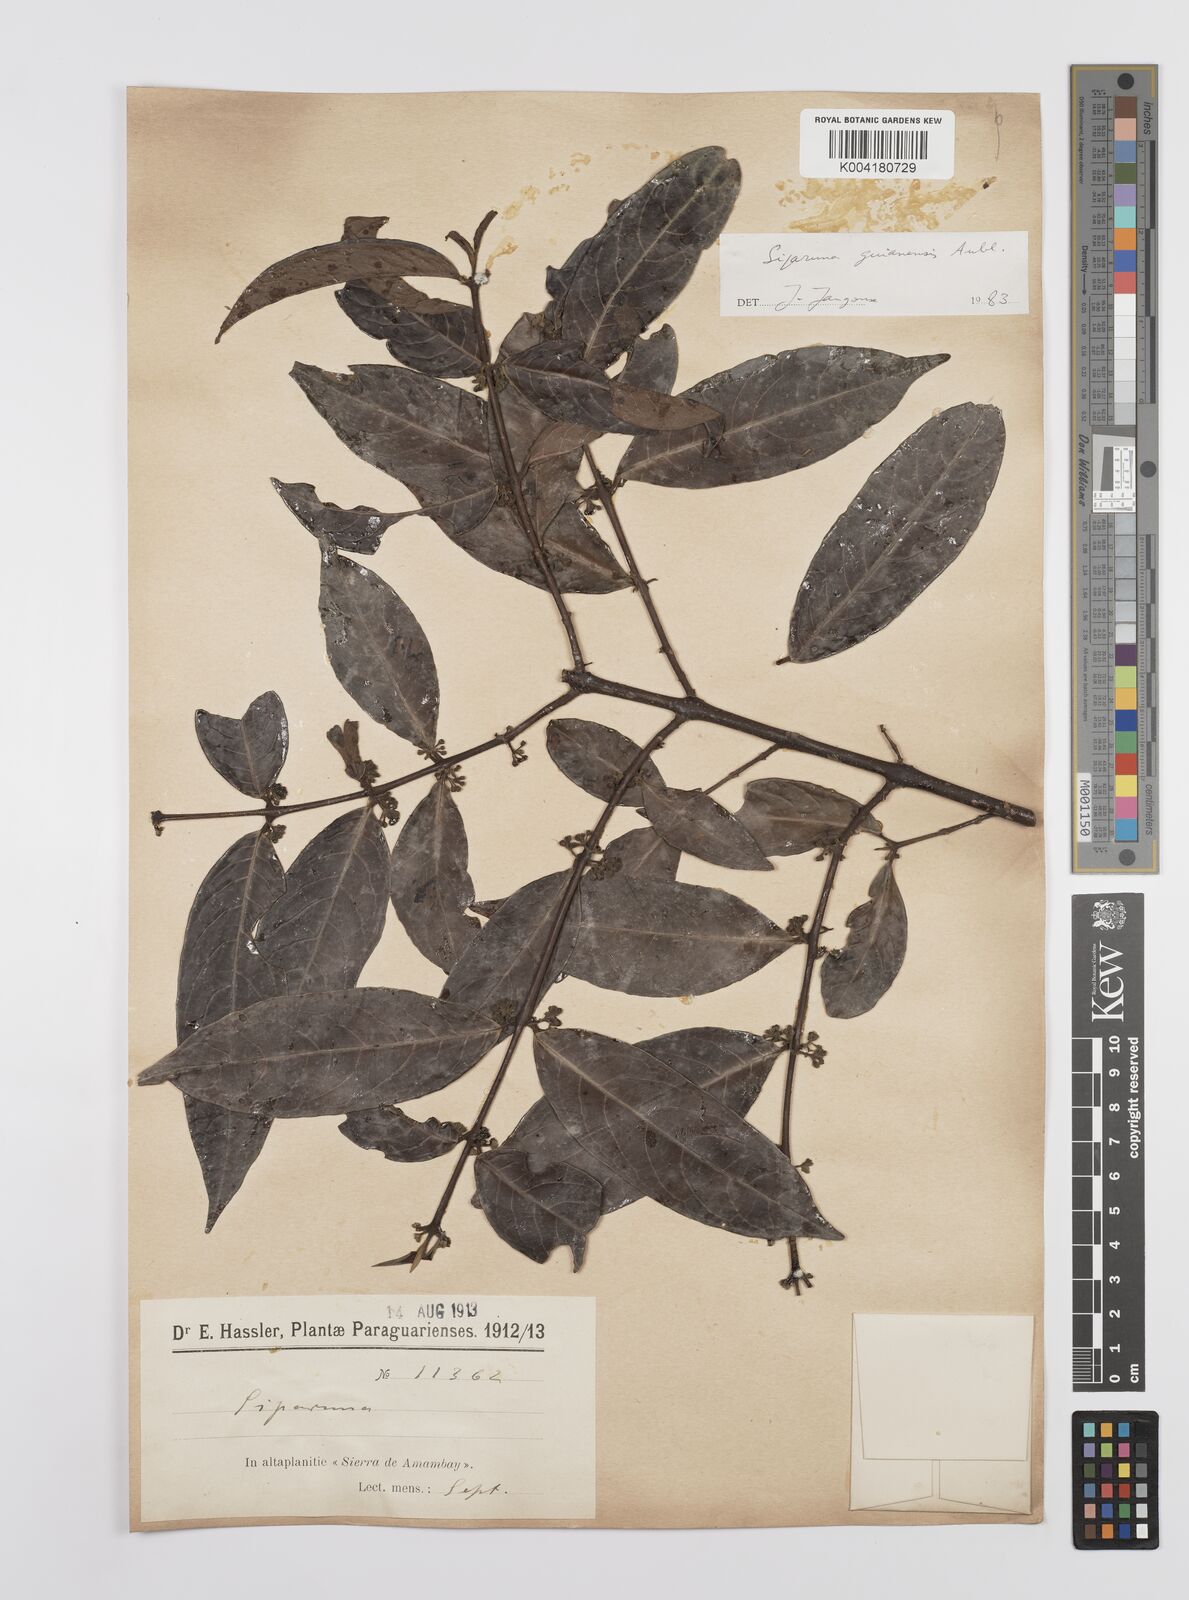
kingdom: Plantae
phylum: Tracheophyta
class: Magnoliopsida
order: Laurales
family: Siparunaceae
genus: Siparuna
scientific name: Siparuna guianensis
